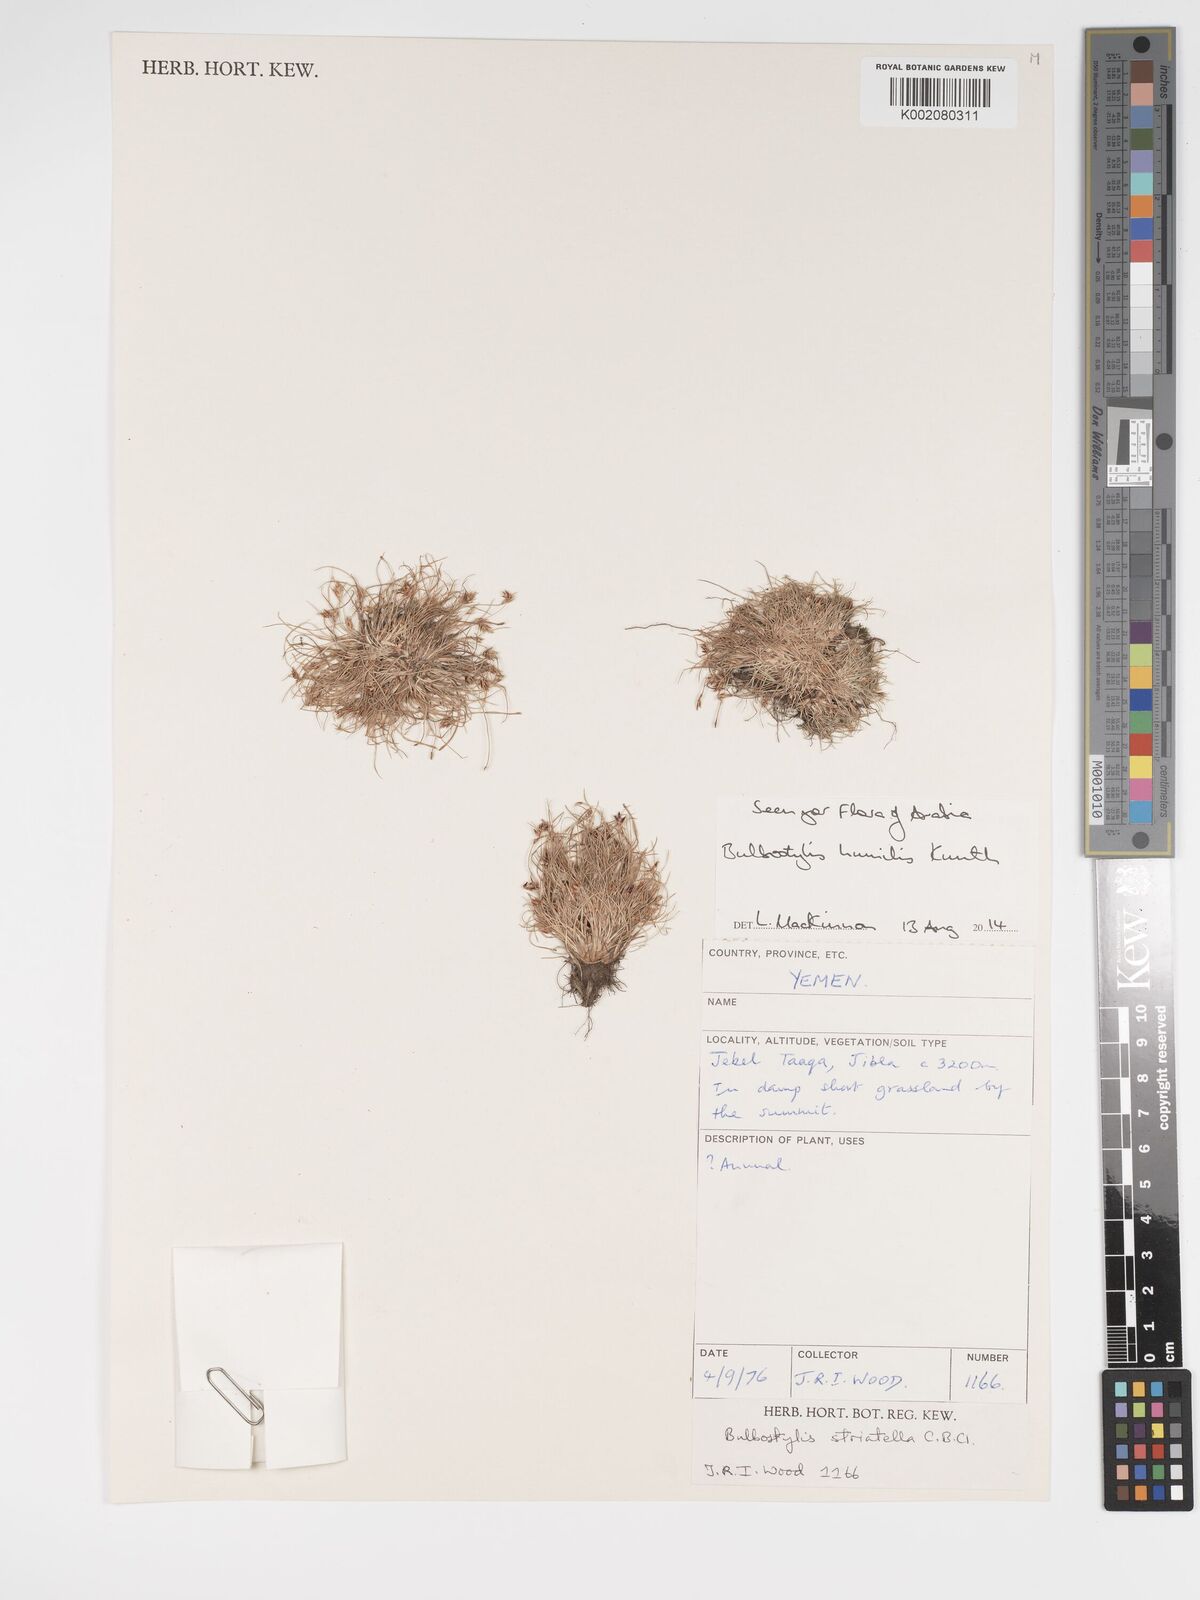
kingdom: Plantae
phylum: Tracheophyta
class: Liliopsida
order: Poales
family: Cyperaceae
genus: Bulbostylis
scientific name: Bulbostylis humilis
